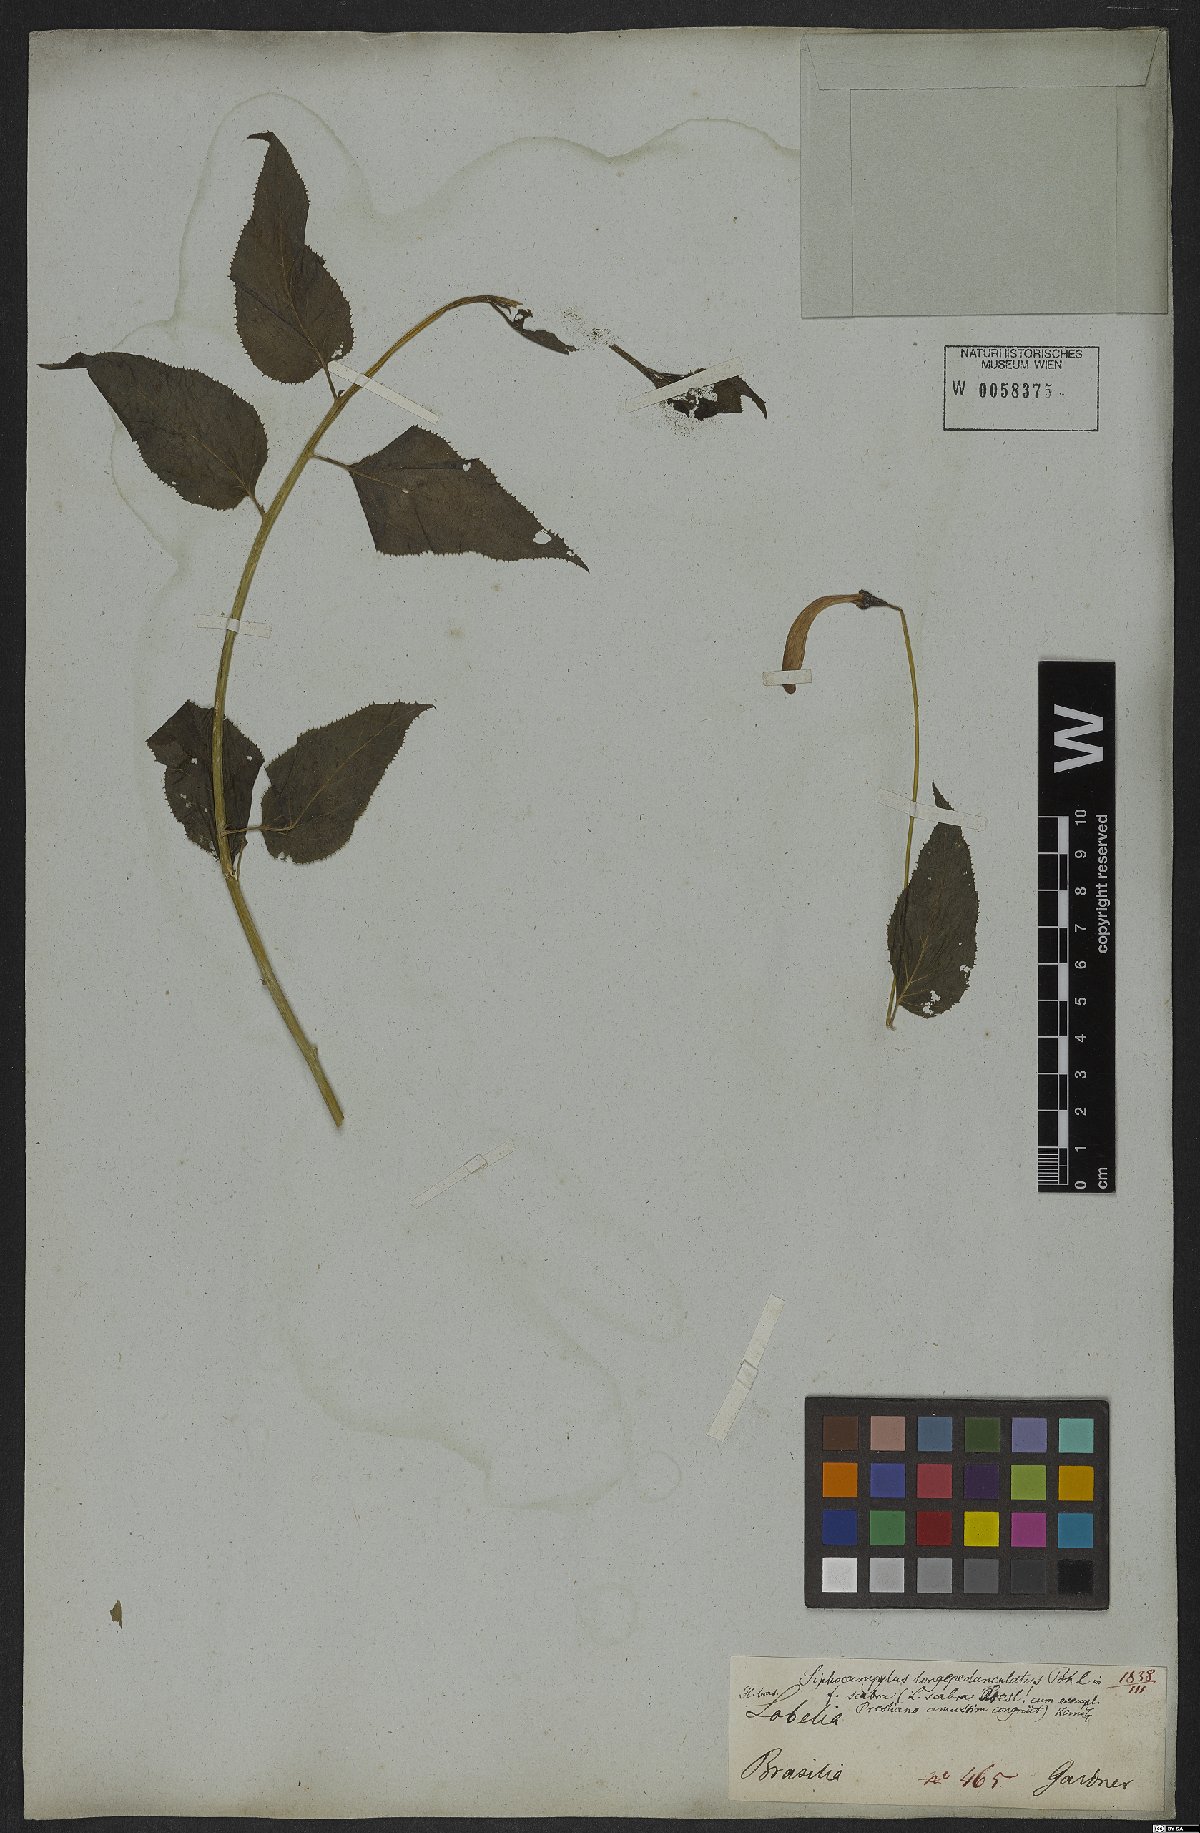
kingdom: Plantae
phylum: Tracheophyta
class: Magnoliopsida
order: Asterales
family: Campanulaceae
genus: Siphocampylus
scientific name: Siphocampylus longipedunculatus
